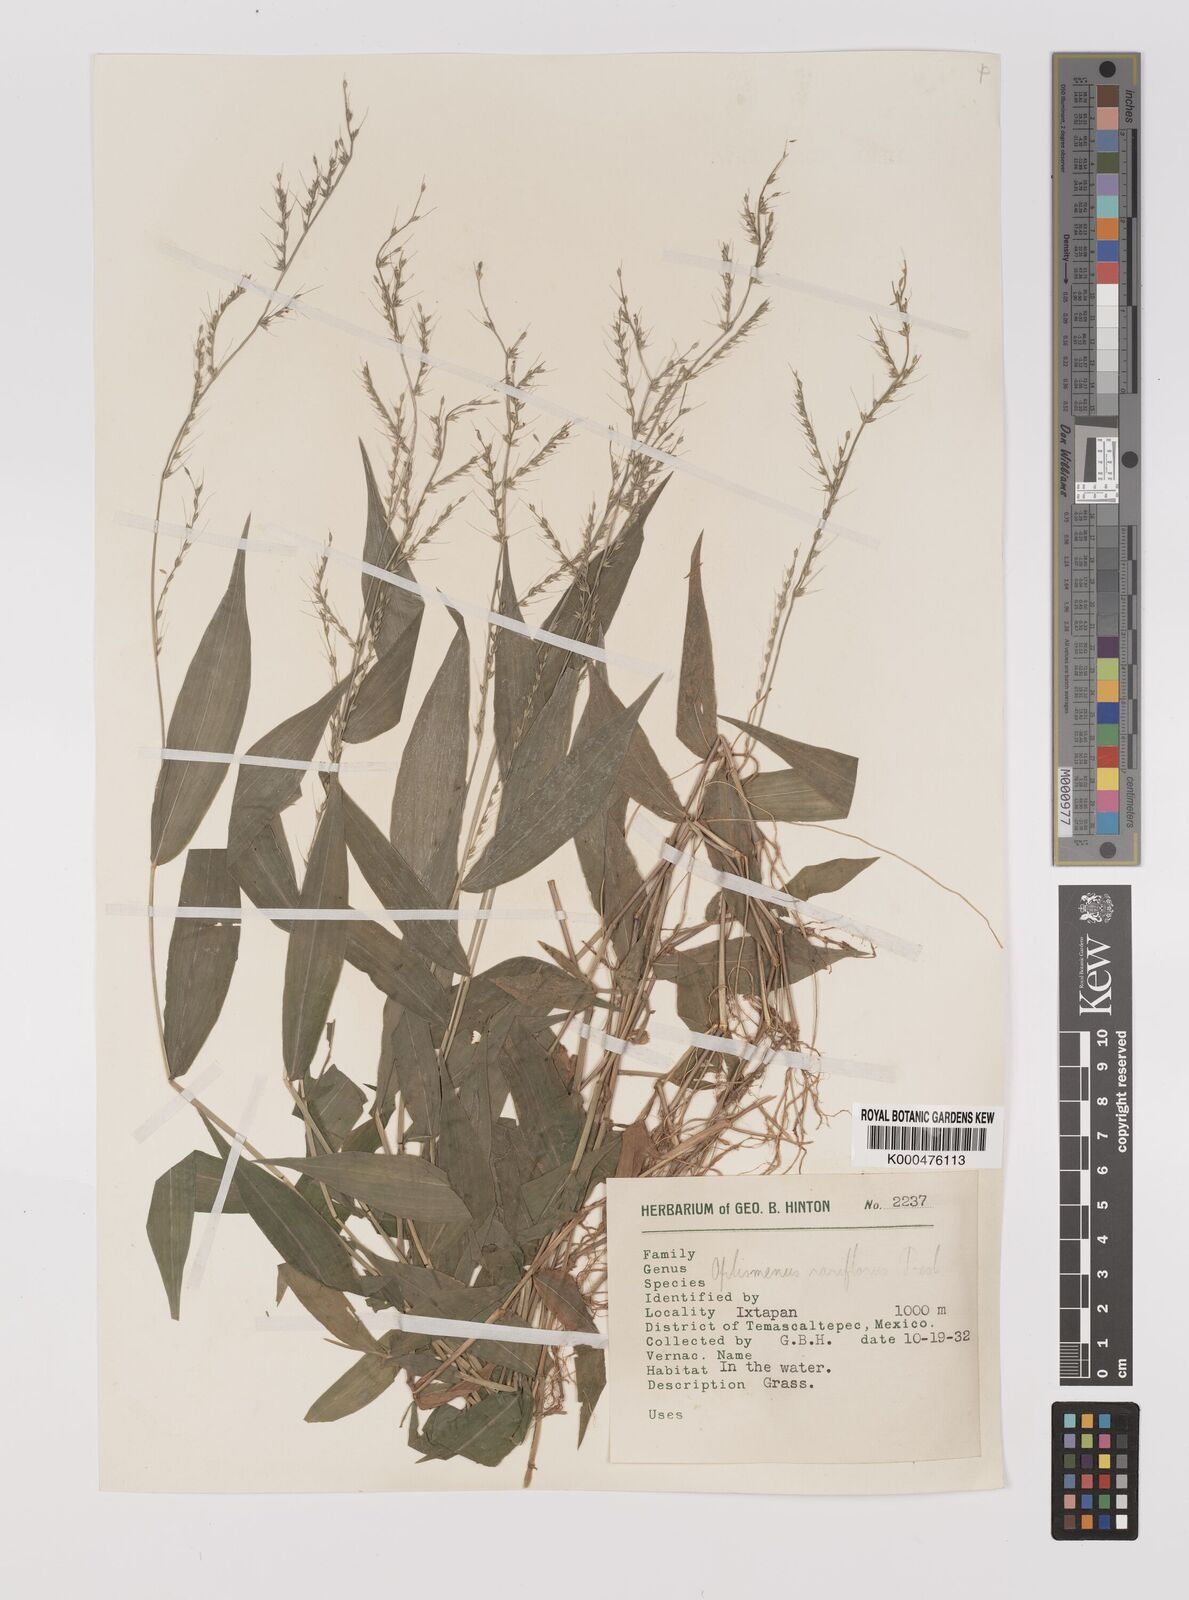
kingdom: Plantae
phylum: Tracheophyta
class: Liliopsida
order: Poales
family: Poaceae
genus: Oplismenus
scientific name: Oplismenus compositus
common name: Running mountain grass
